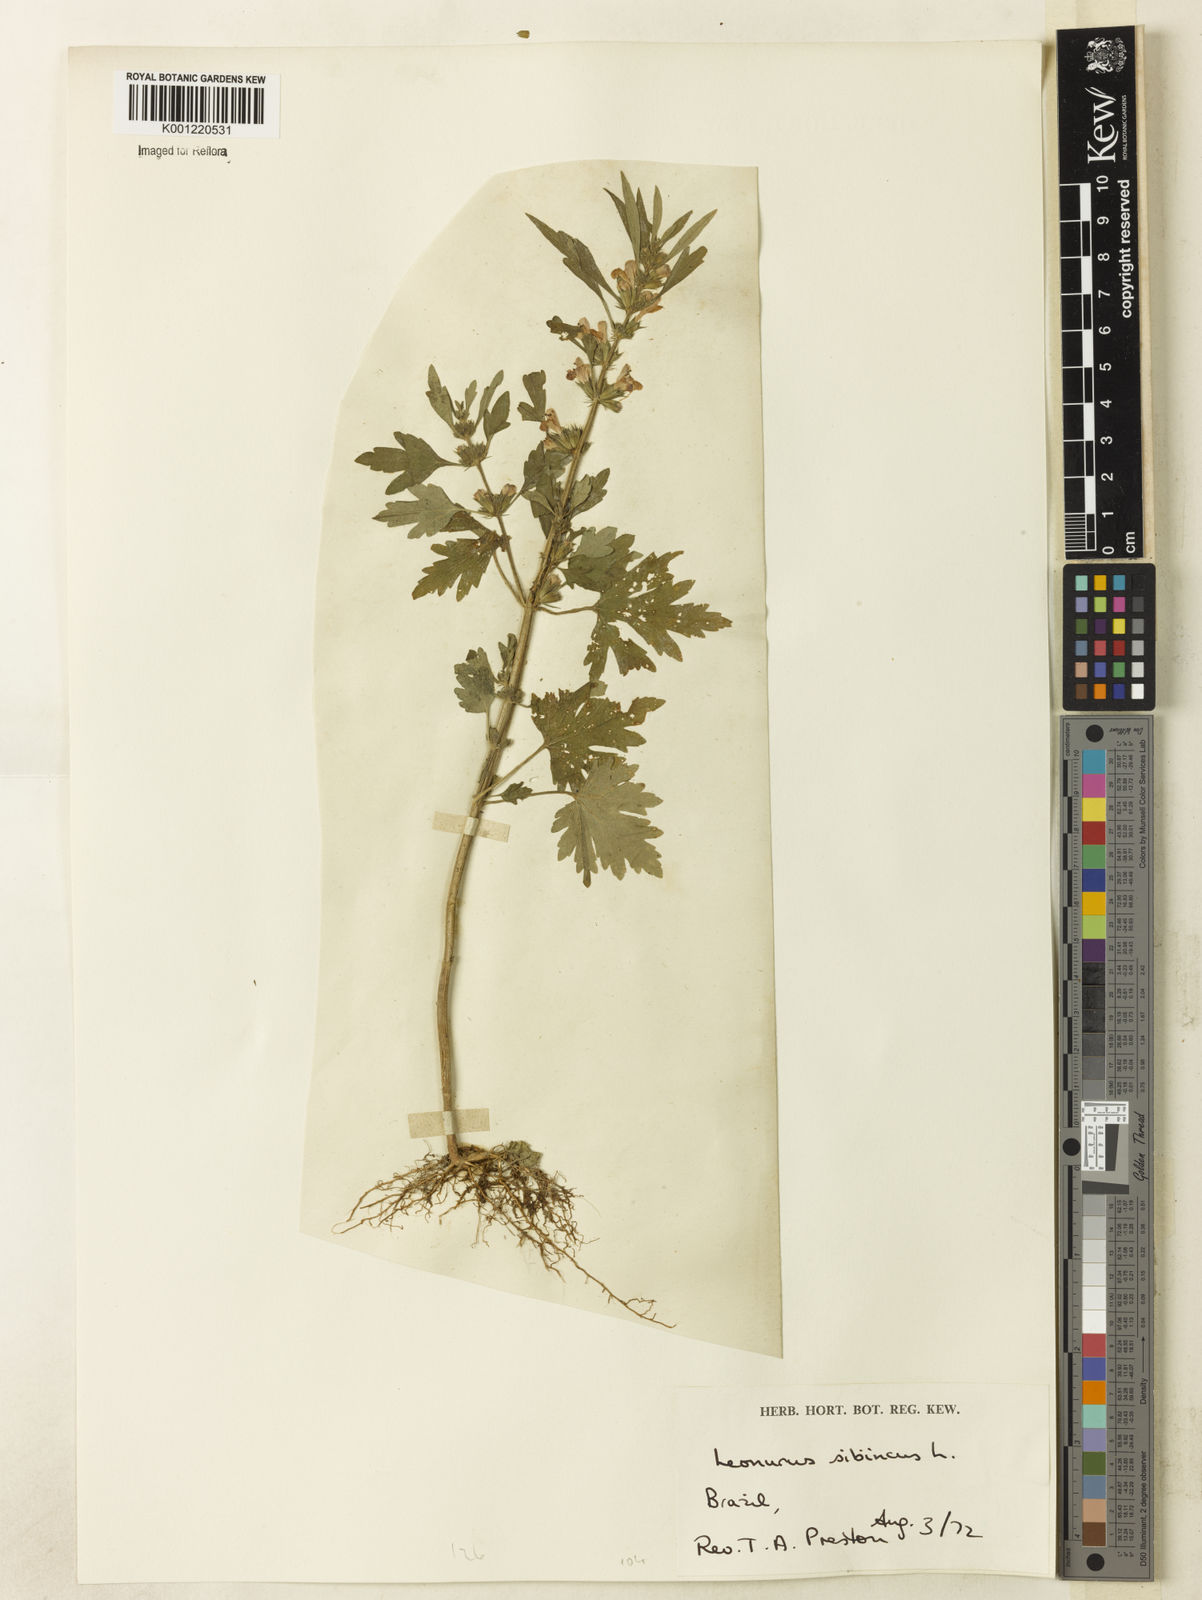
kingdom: Plantae
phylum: Tracheophyta
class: Magnoliopsida
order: Lamiales
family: Lamiaceae
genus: Leonurus
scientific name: Leonurus japonicus
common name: Honeyweed
